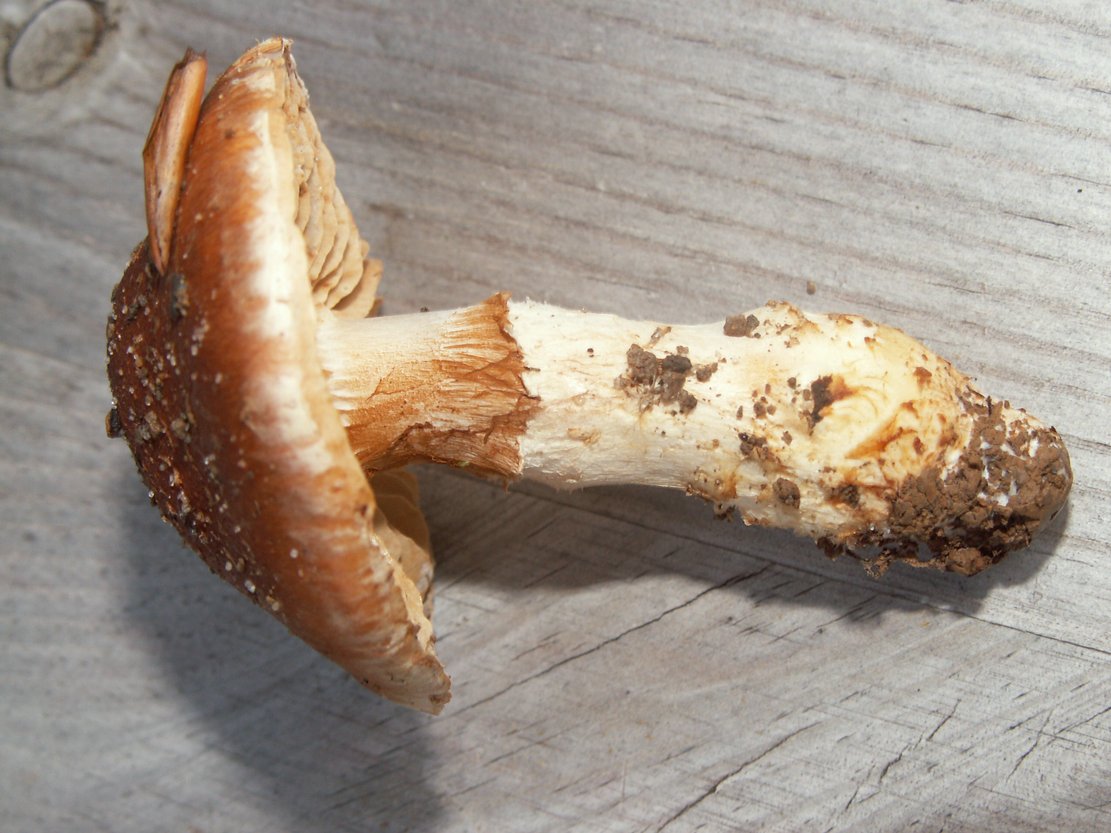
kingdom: Fungi
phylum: Basidiomycota
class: Agaricomycetes
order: Agaricales
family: Cortinariaceae
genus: Phlegmacium
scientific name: Phlegmacium vulpinum
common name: ringbæltet slørhat
